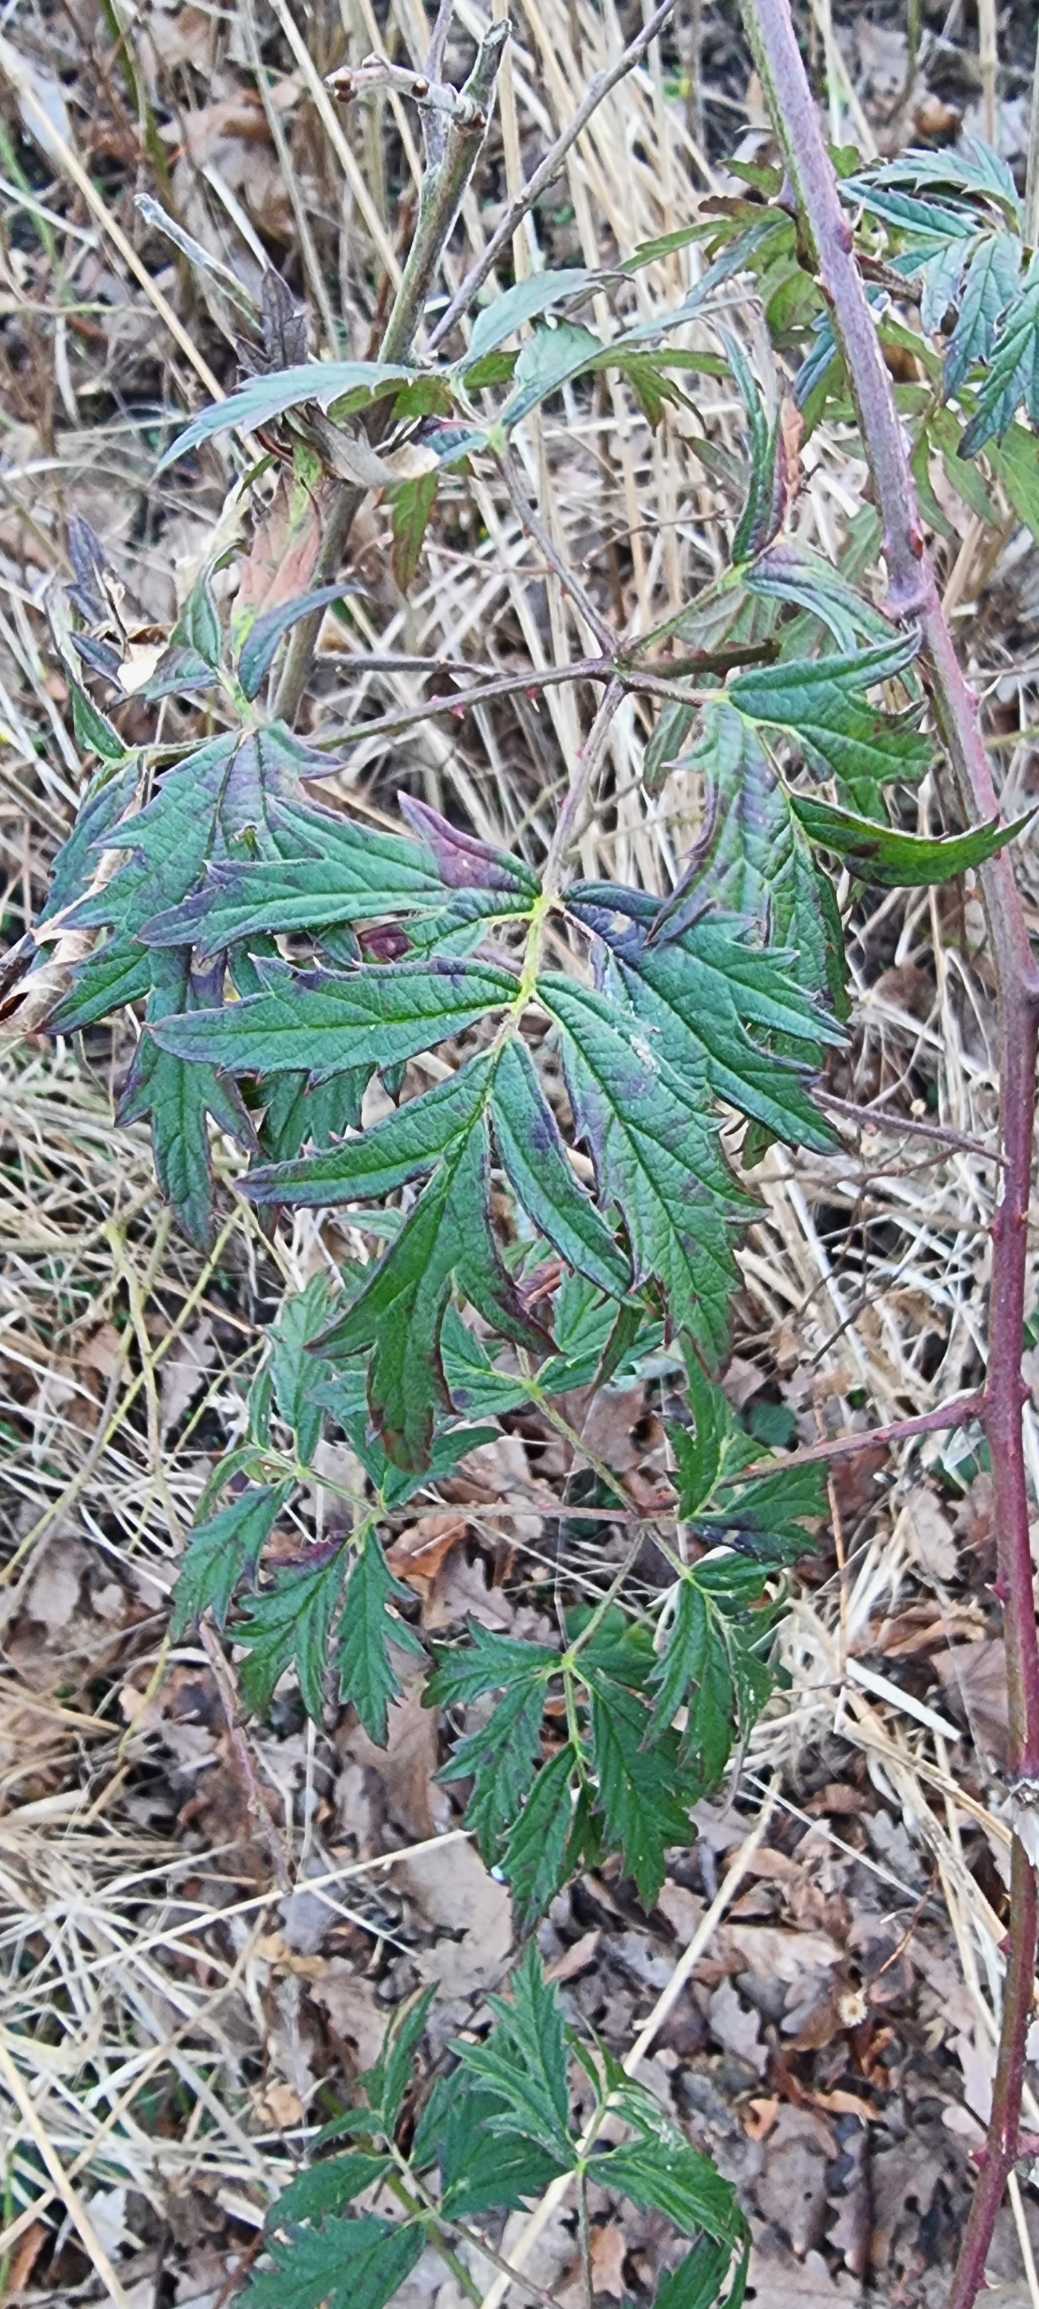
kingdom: Plantae
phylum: Tracheophyta
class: Magnoliopsida
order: Rosales
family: Rosaceae
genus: Rubus
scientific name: Rubus laciniatus
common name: Fliget brombær
